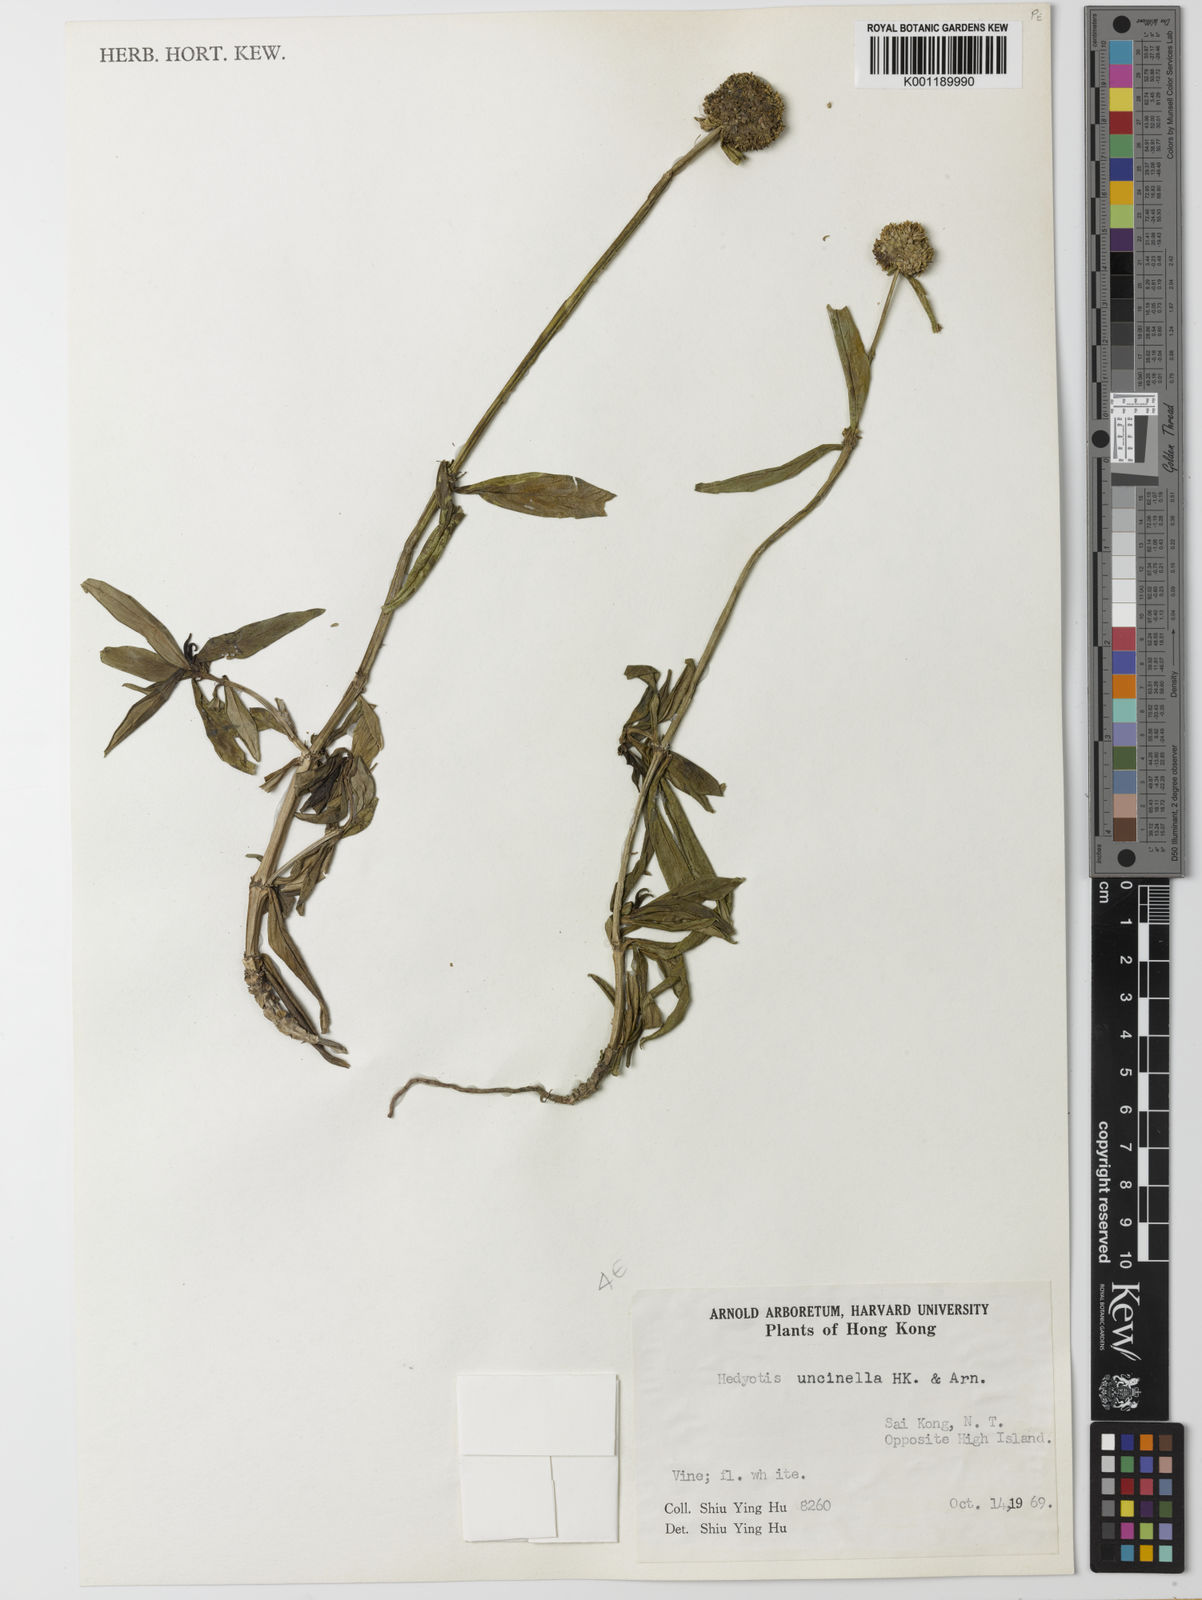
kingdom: Plantae
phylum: Tracheophyta
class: Magnoliopsida
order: Gentianales
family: Rubiaceae
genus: Hedyotis
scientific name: Hedyotis uncinella
